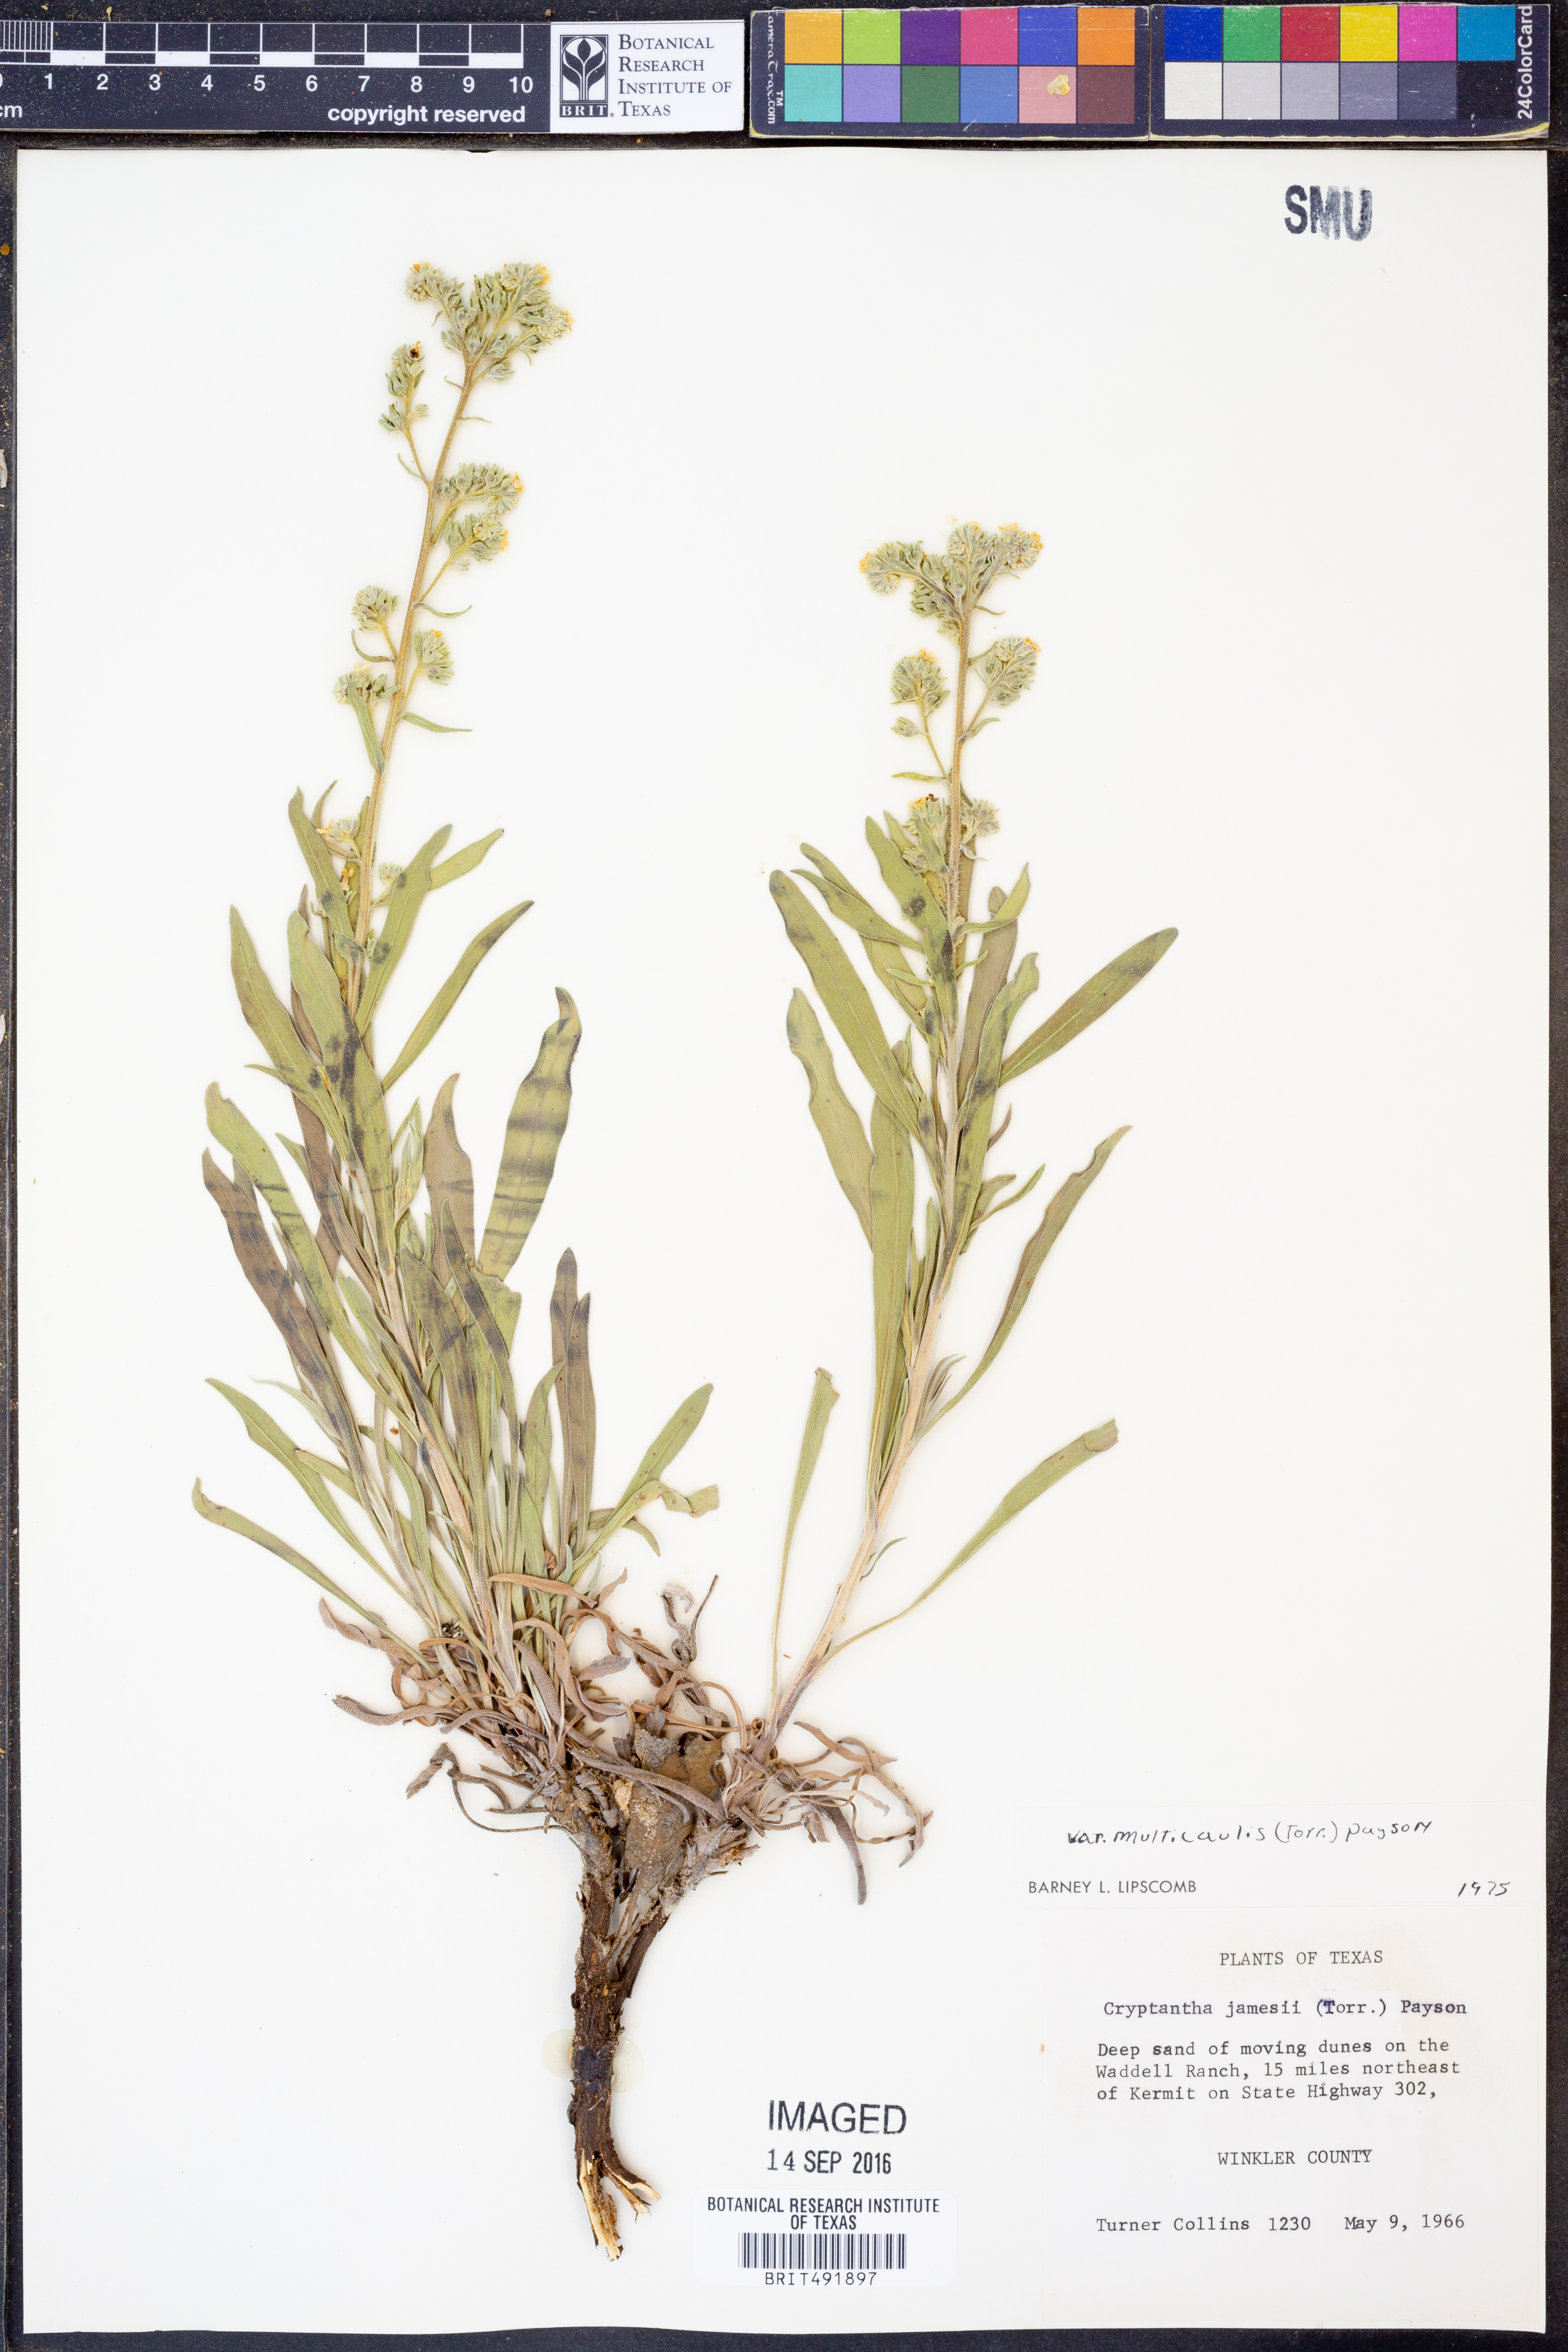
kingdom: Plantae
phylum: Tracheophyta
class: Magnoliopsida
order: Boraginales
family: Boraginaceae
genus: Oreocarya
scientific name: Oreocarya suffruticosa
